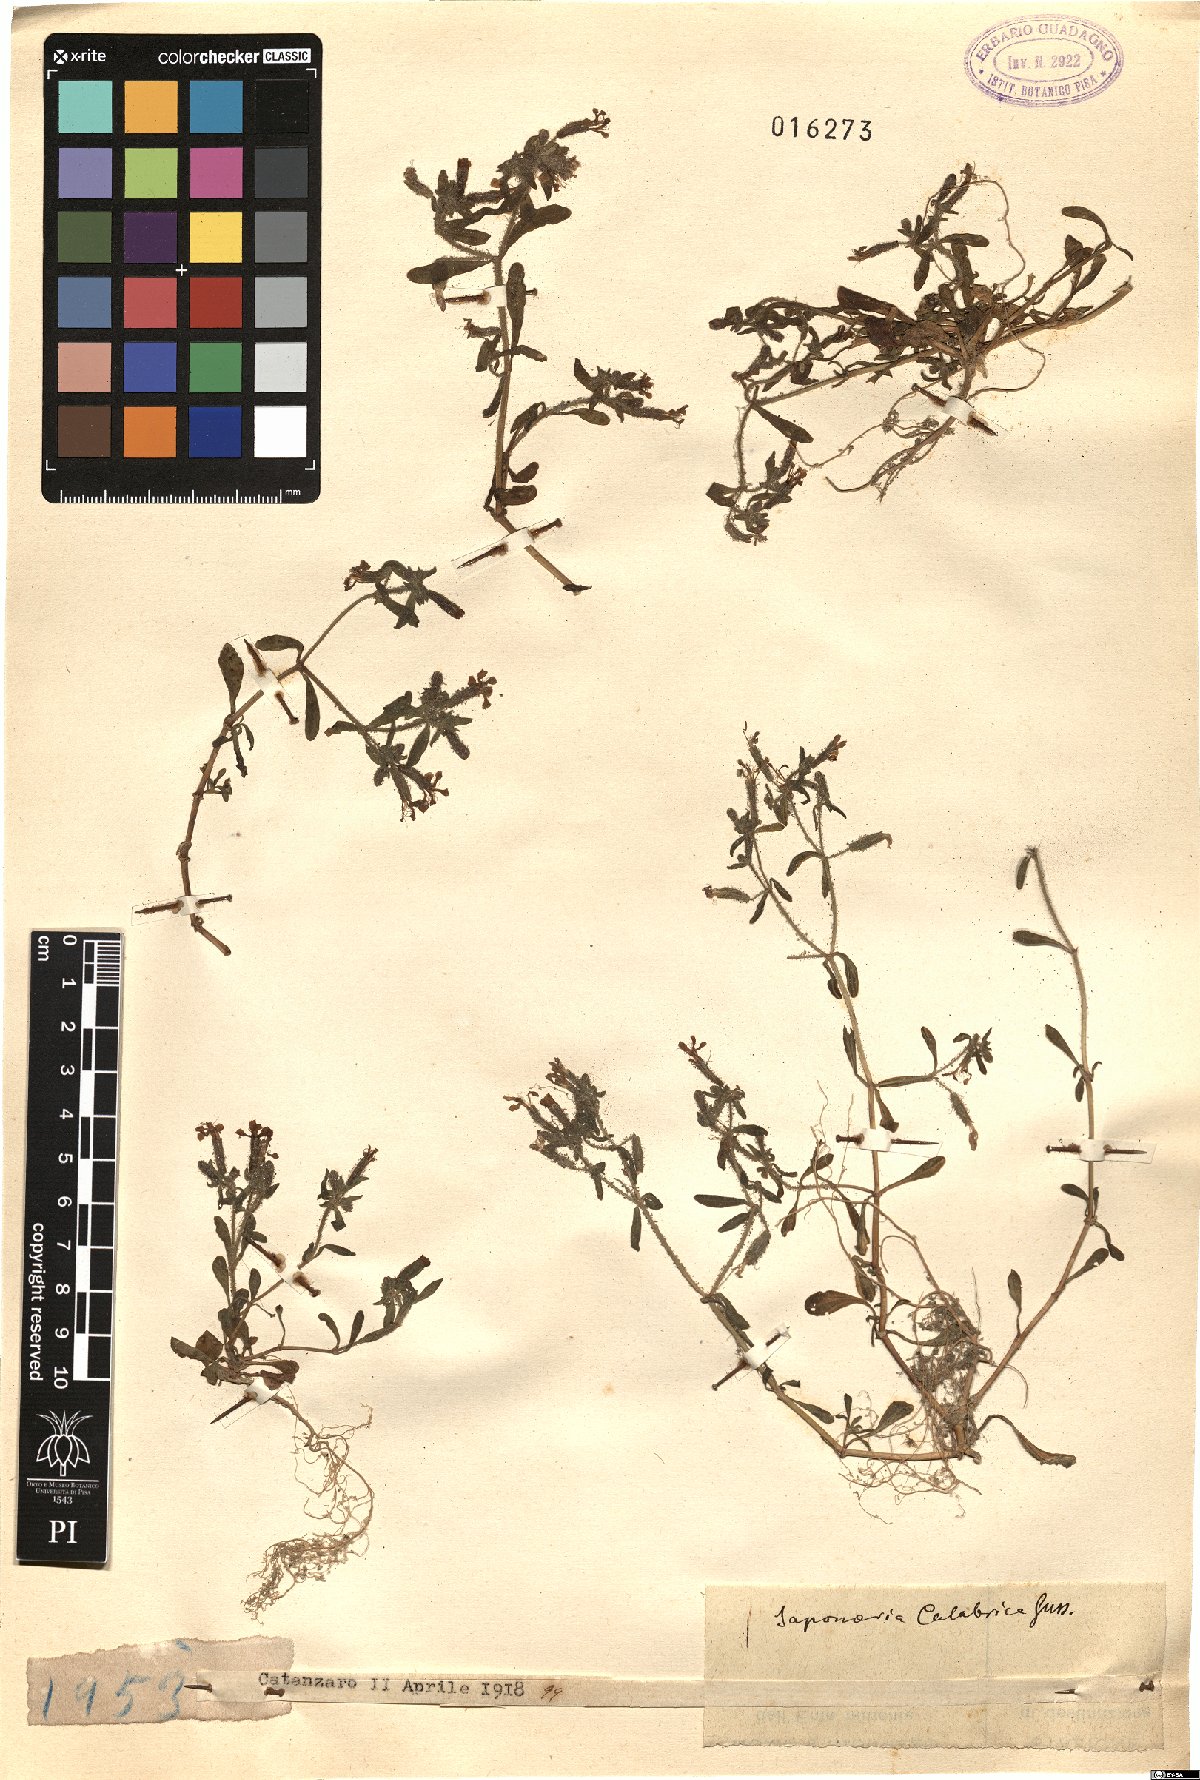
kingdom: Plantae
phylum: Tracheophyta
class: Magnoliopsida
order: Caryophyllales
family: Caryophyllaceae
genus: Saponaria
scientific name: Saponaria calabrica
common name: Adriatic soapwort
